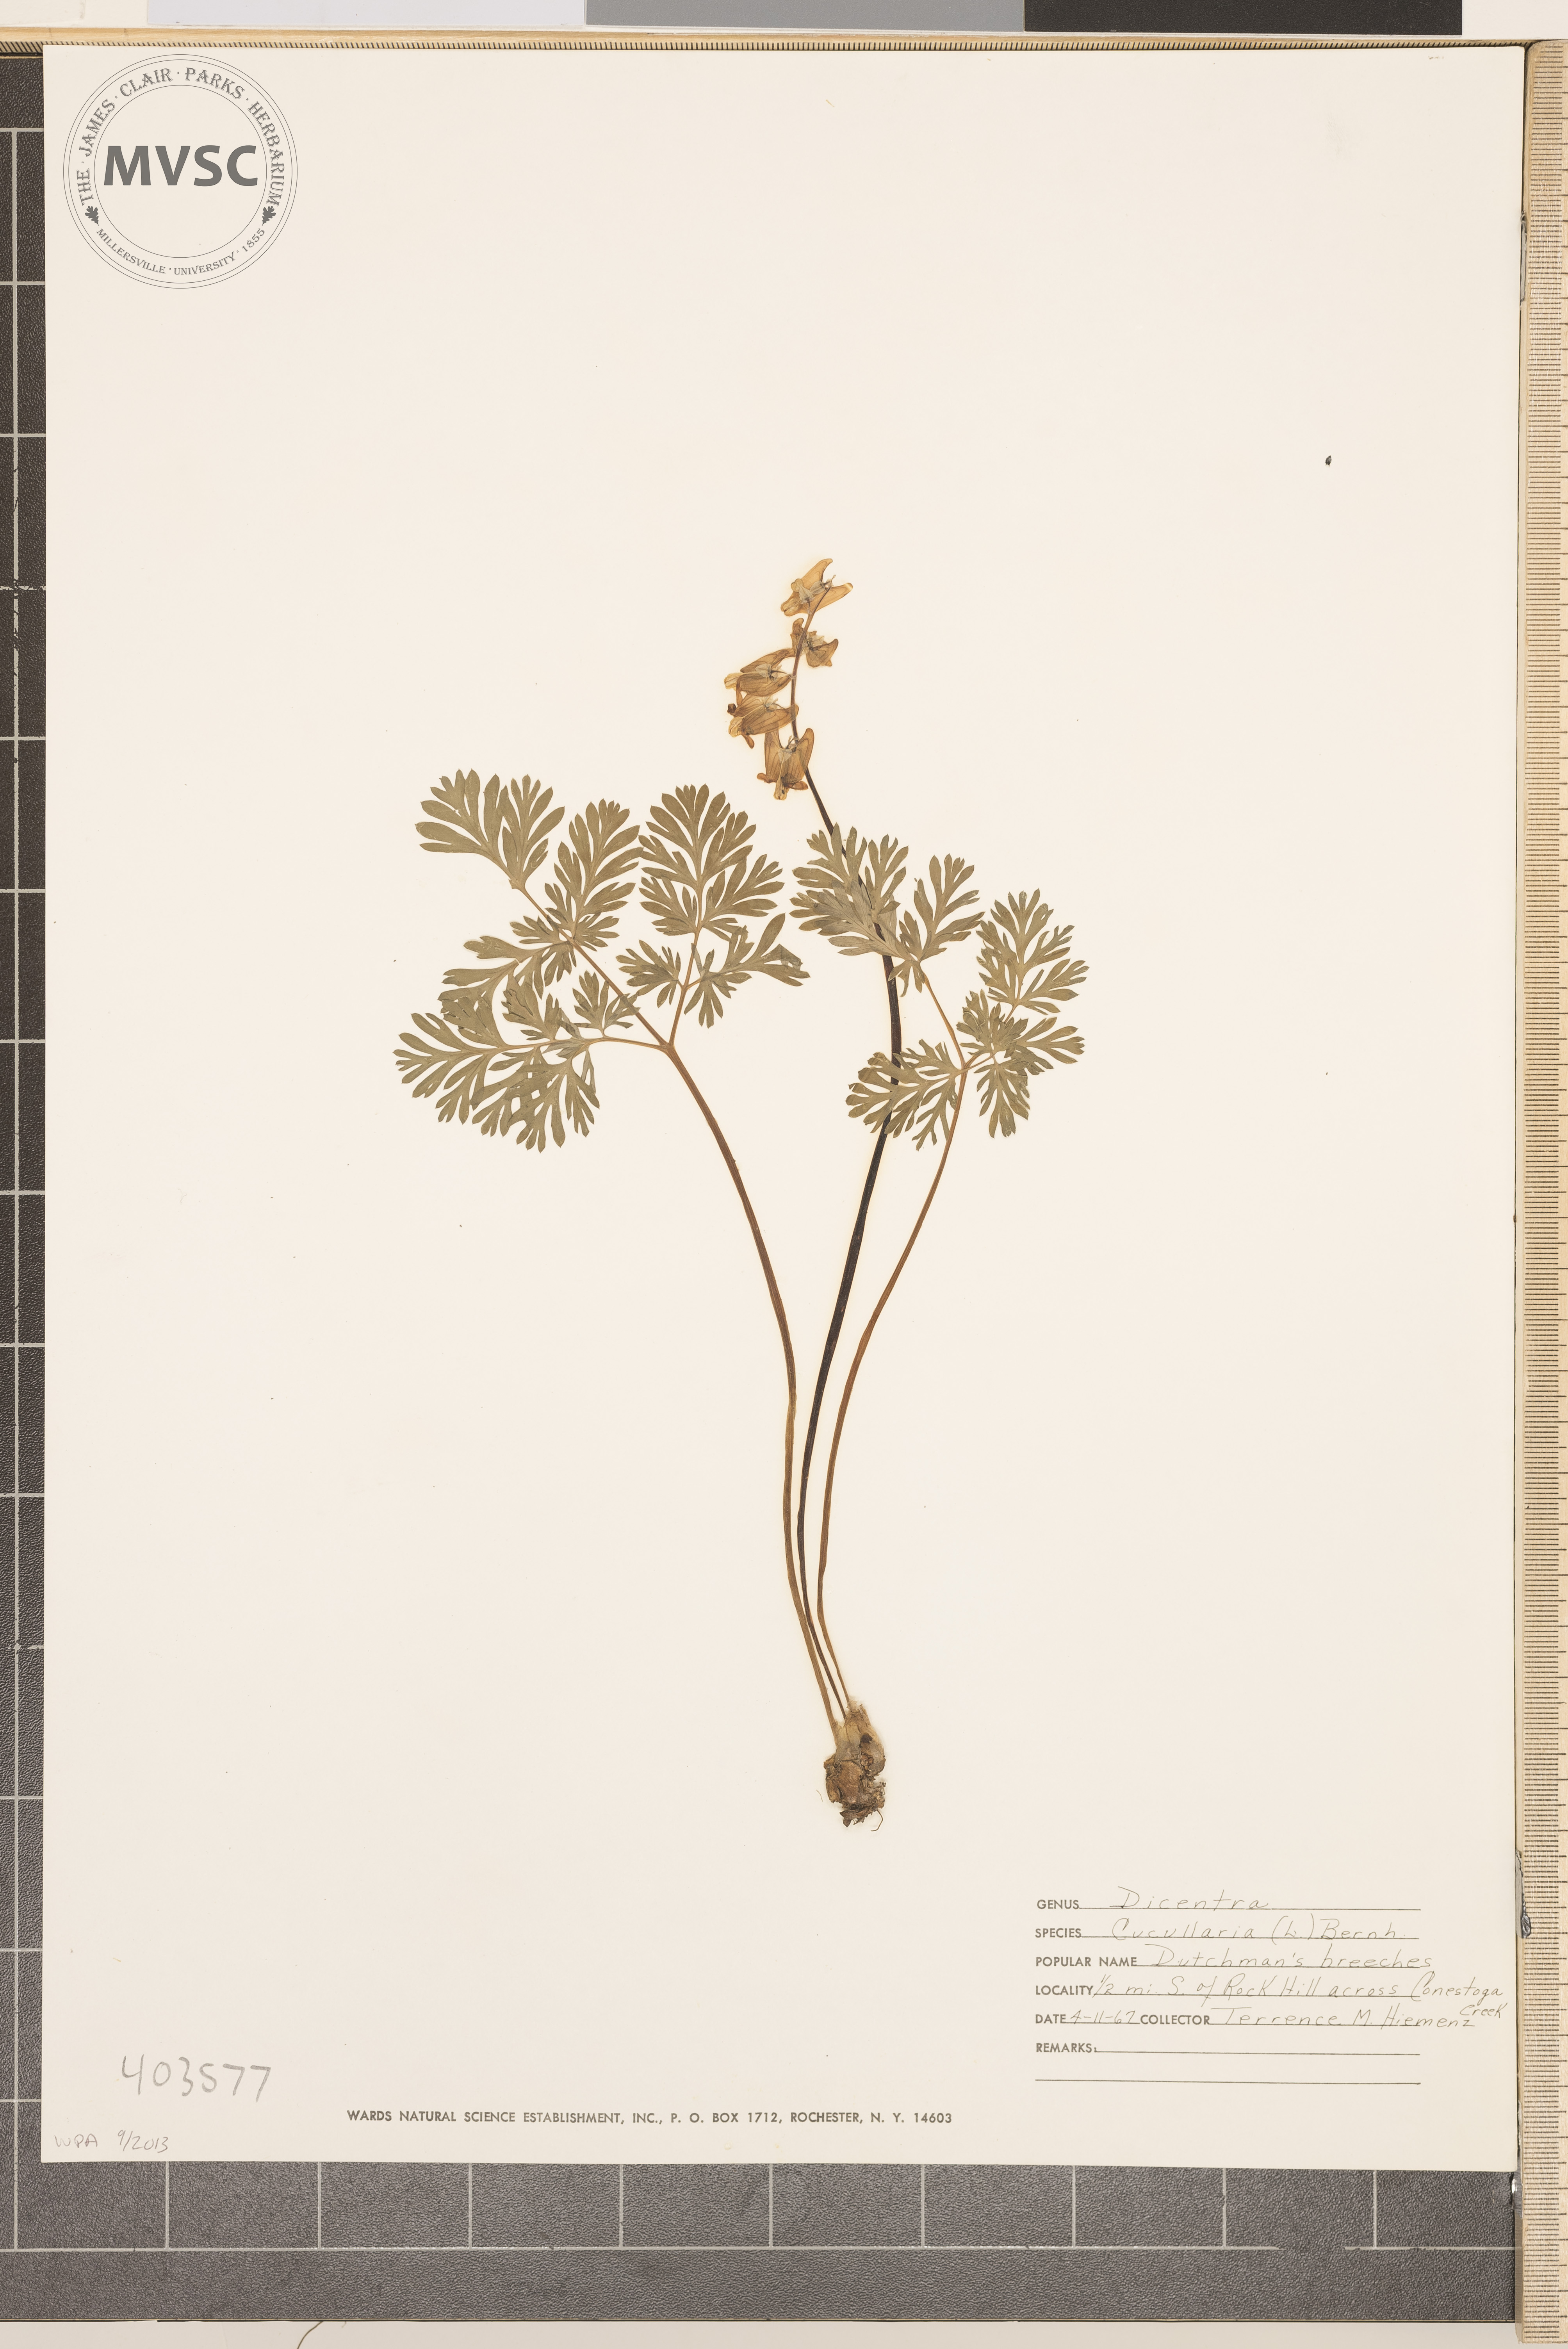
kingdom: Plantae
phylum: Tracheophyta
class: Magnoliopsida
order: Ranunculales
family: Papaveraceae
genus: Dicentra
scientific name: Dicentra cucullaria
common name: Dutchman's Breeches
